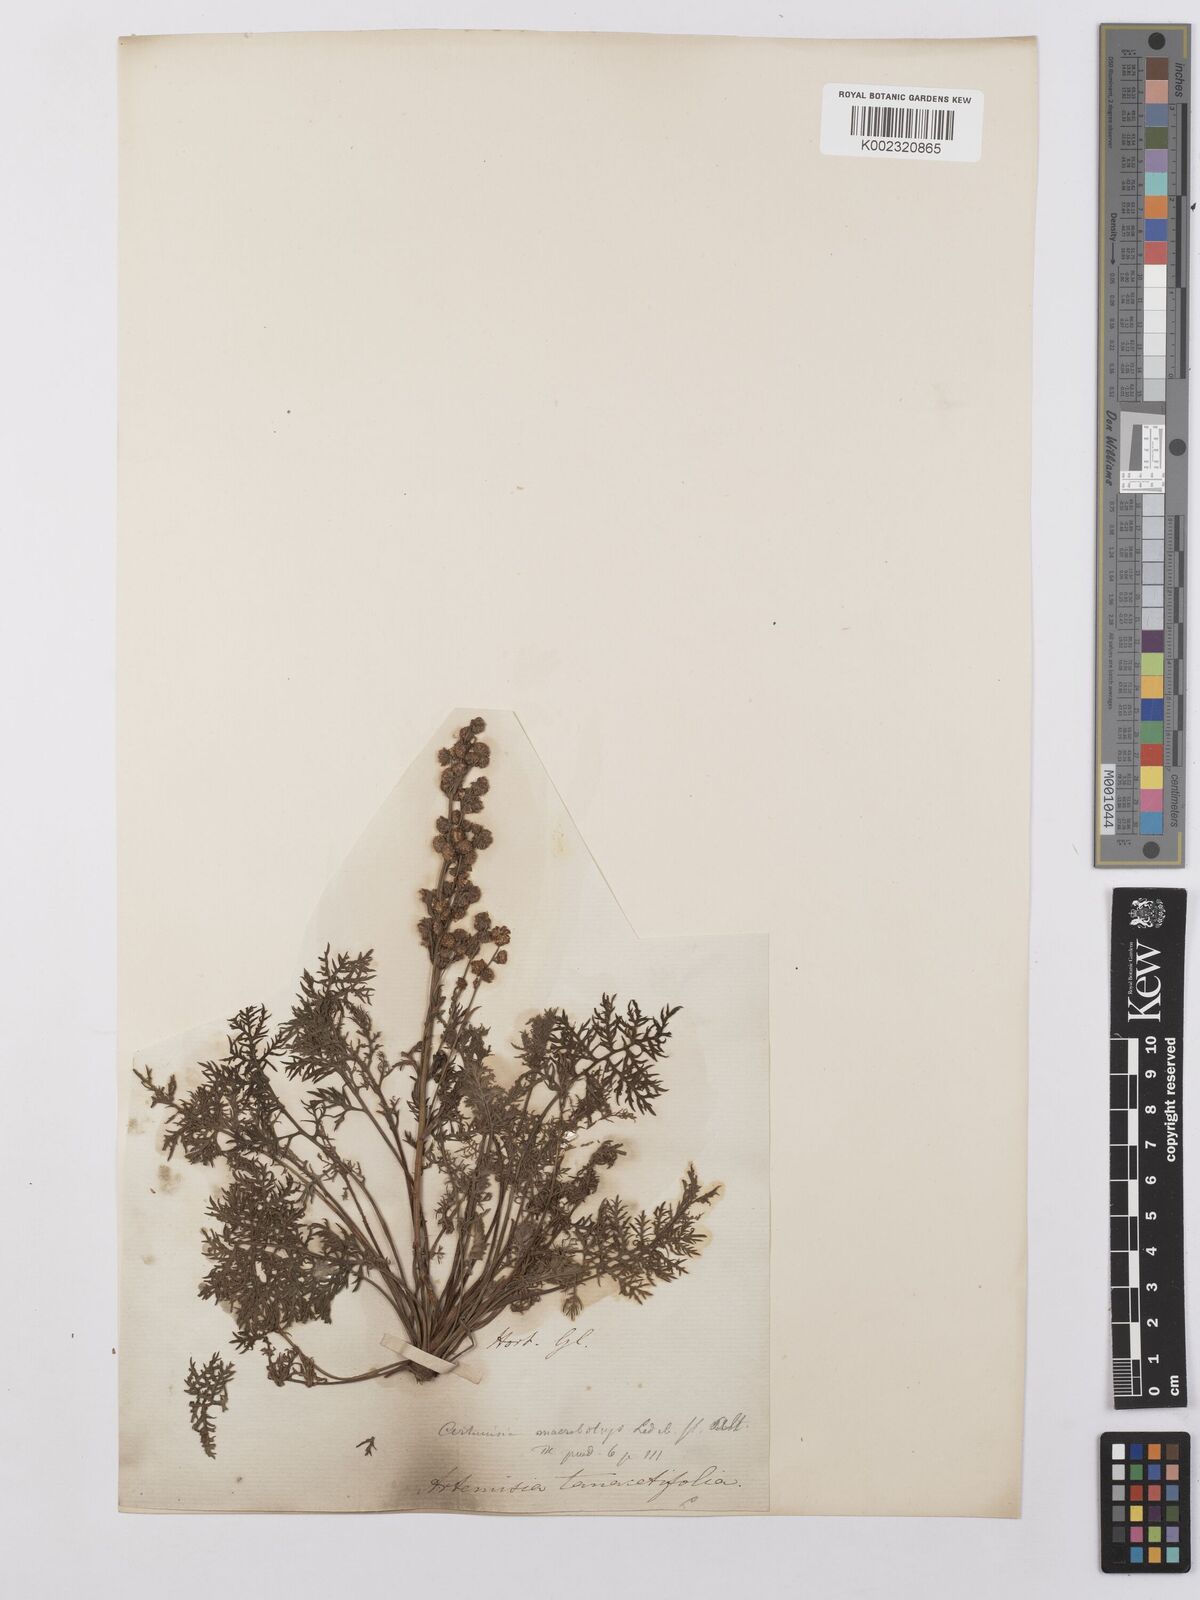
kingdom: Plantae
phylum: Tracheophyta
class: Magnoliopsida
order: Asterales
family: Asteraceae
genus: Artemisia
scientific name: Artemisia laciniata
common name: Siberian wormwood
